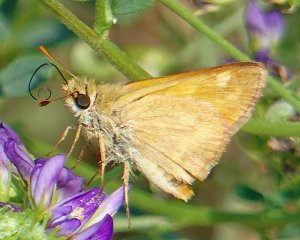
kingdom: Animalia
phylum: Arthropoda
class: Insecta
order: Lepidoptera
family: Hesperiidae
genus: Ochlodes
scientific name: Ochlodes sylvanoides
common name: Woodland Skipper
